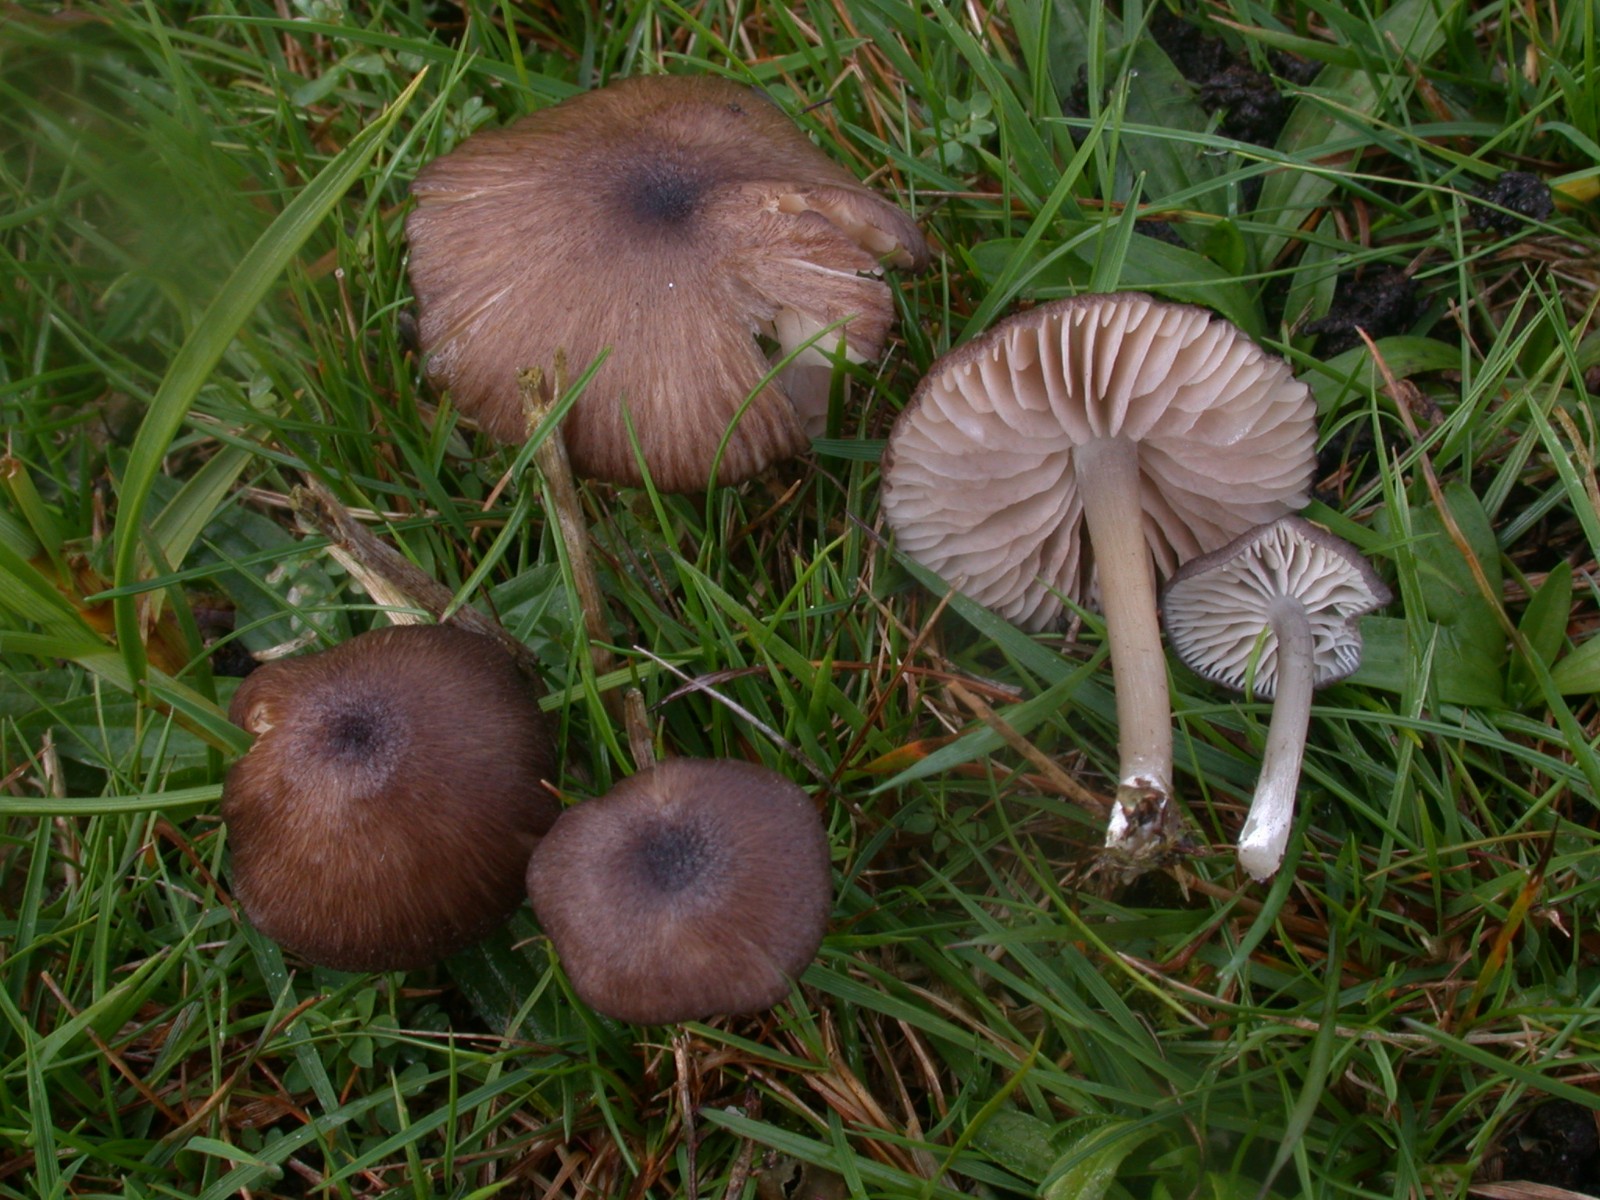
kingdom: Fungi
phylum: Basidiomycota
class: Agaricomycetes
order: Agaricales
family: Entolomataceae
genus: Entoloma
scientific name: Entoloma porphyrogriseum
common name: porfyrgrå rødblad
